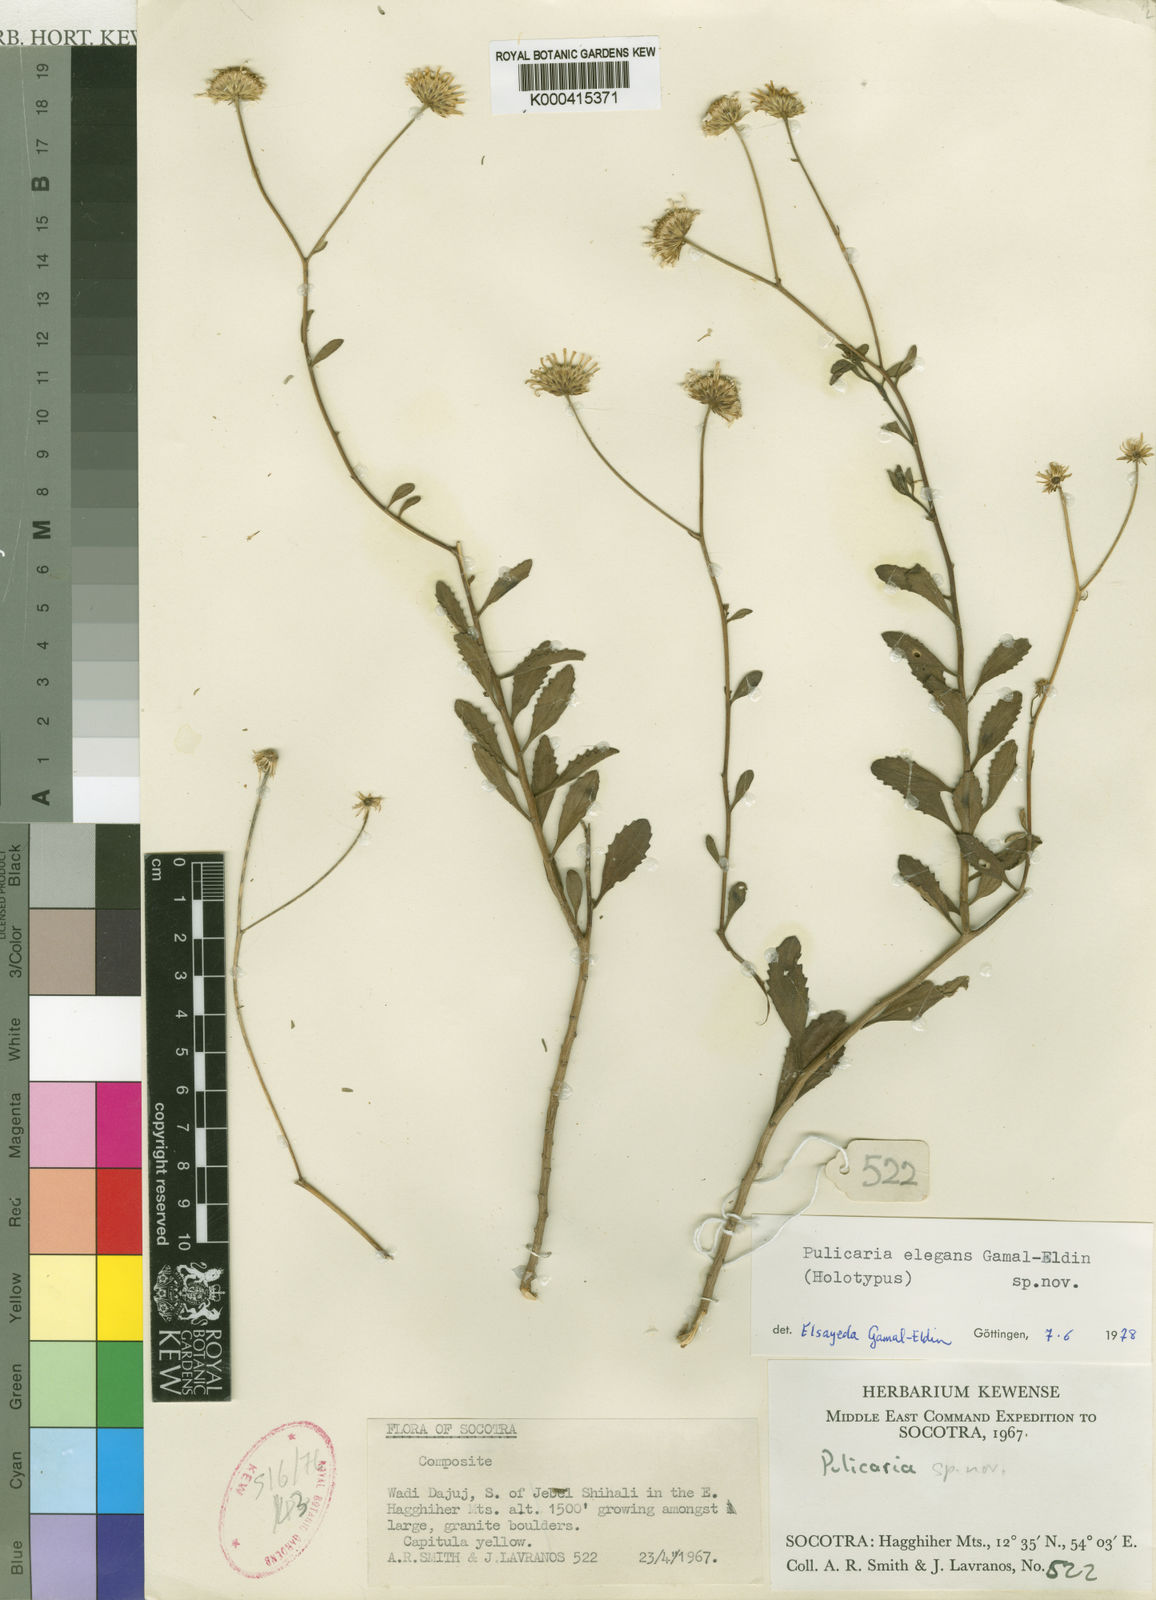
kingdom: Plantae
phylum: Tracheophyta
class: Magnoliopsida
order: Asterales
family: Asteraceae
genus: Pulicaria
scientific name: Pulicaria elegans
